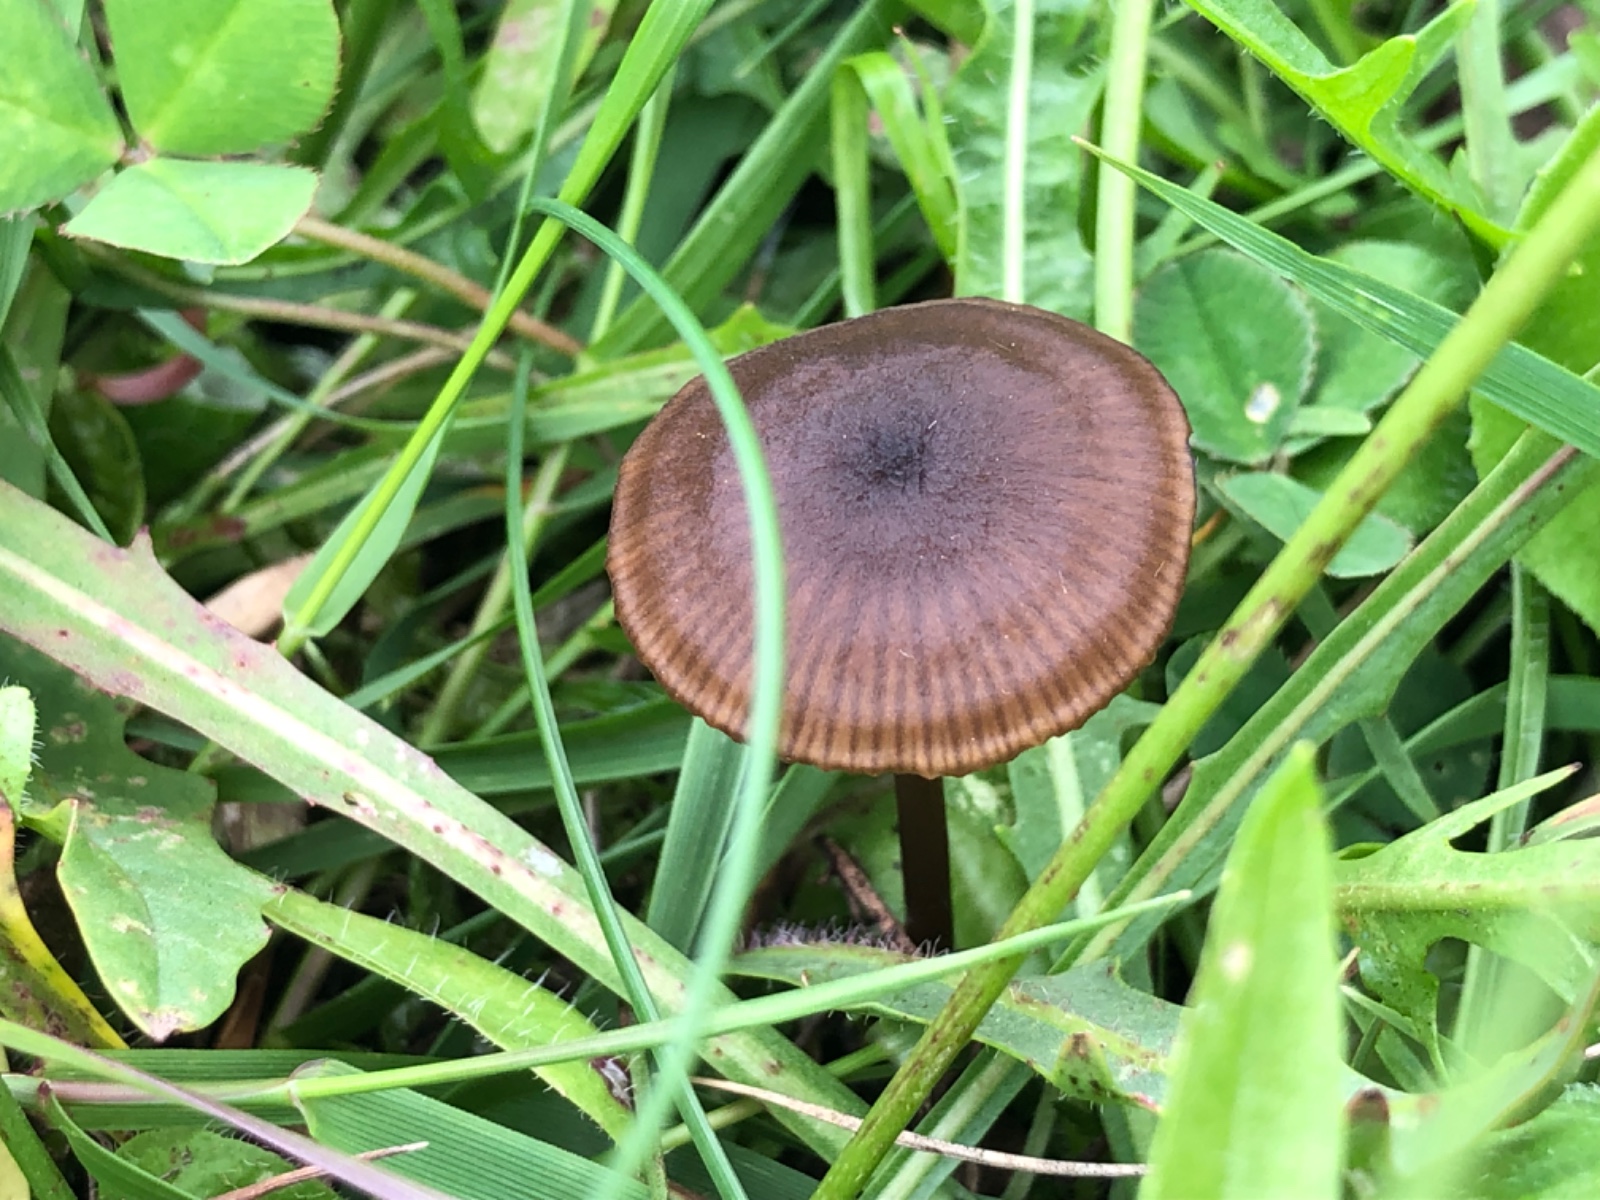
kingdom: Fungi
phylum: Basidiomycota
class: Agaricomycetes
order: Agaricales
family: Entolomataceae
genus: Entoloma
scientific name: Entoloma clandestinum
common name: tykbladet rødblad
